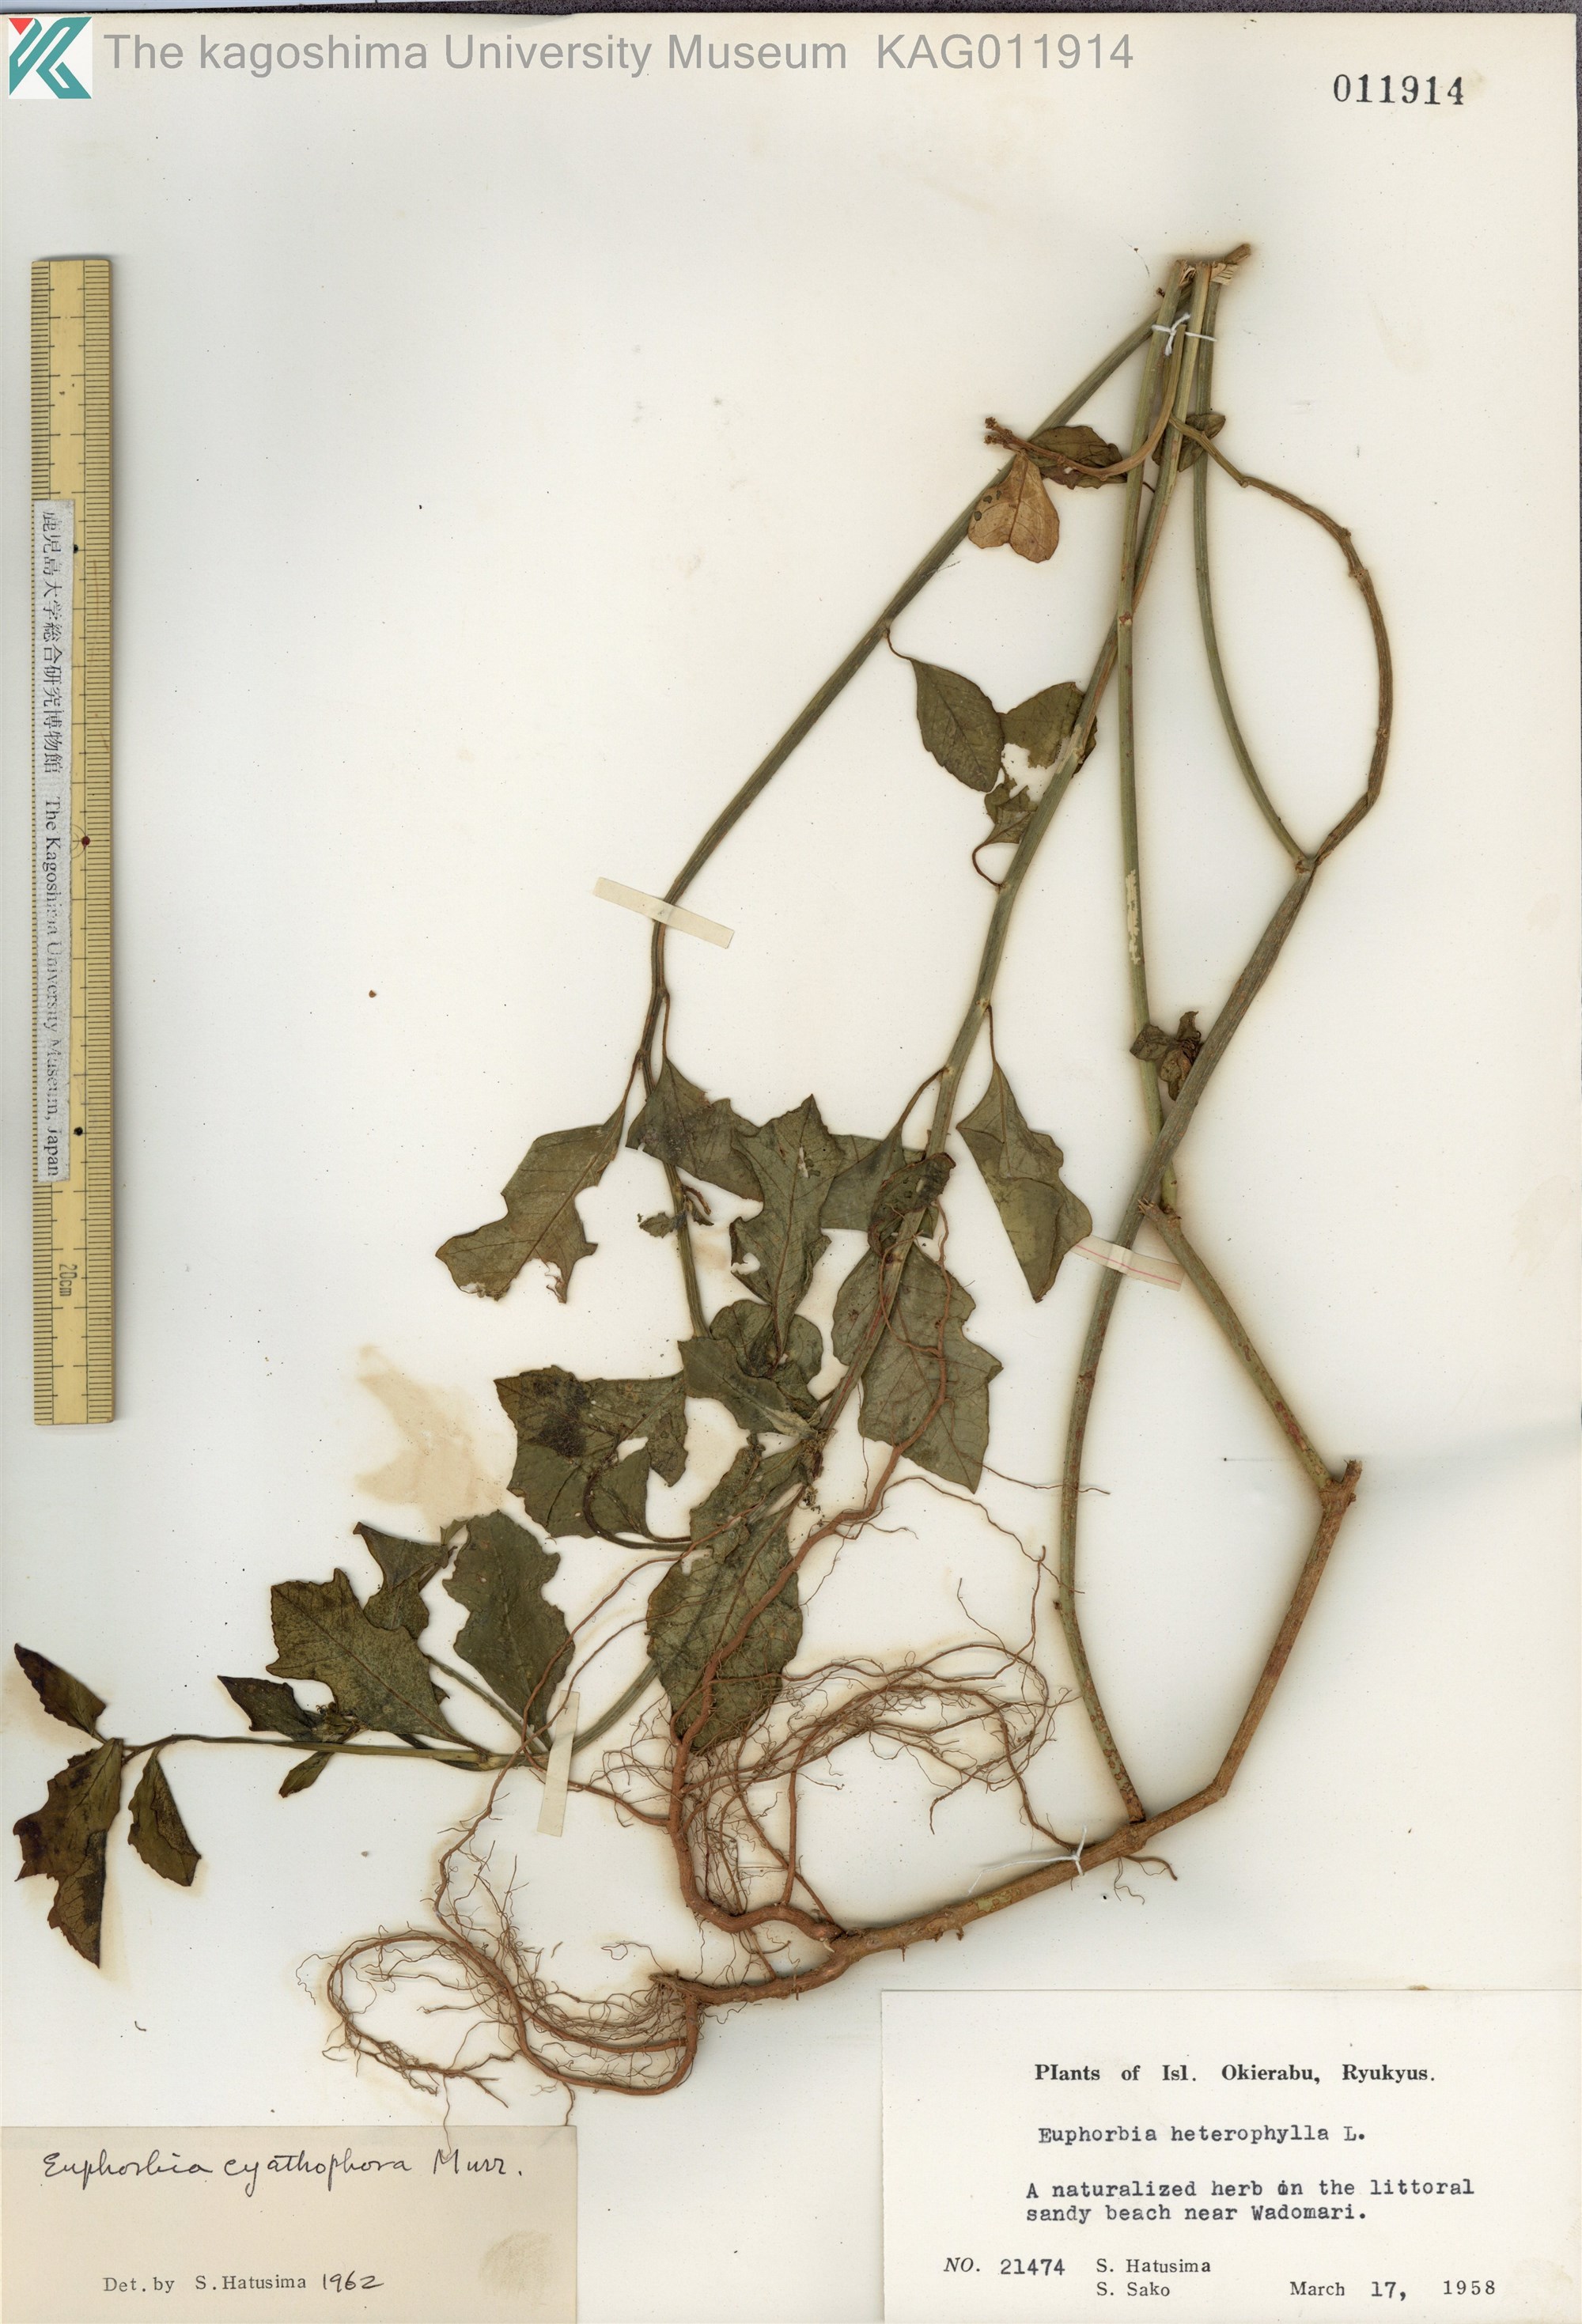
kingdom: Plantae
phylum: Tracheophyta
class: Magnoliopsida
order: Malpighiales
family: Euphorbiaceae
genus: Euphorbia
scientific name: Euphorbia heterophylla
